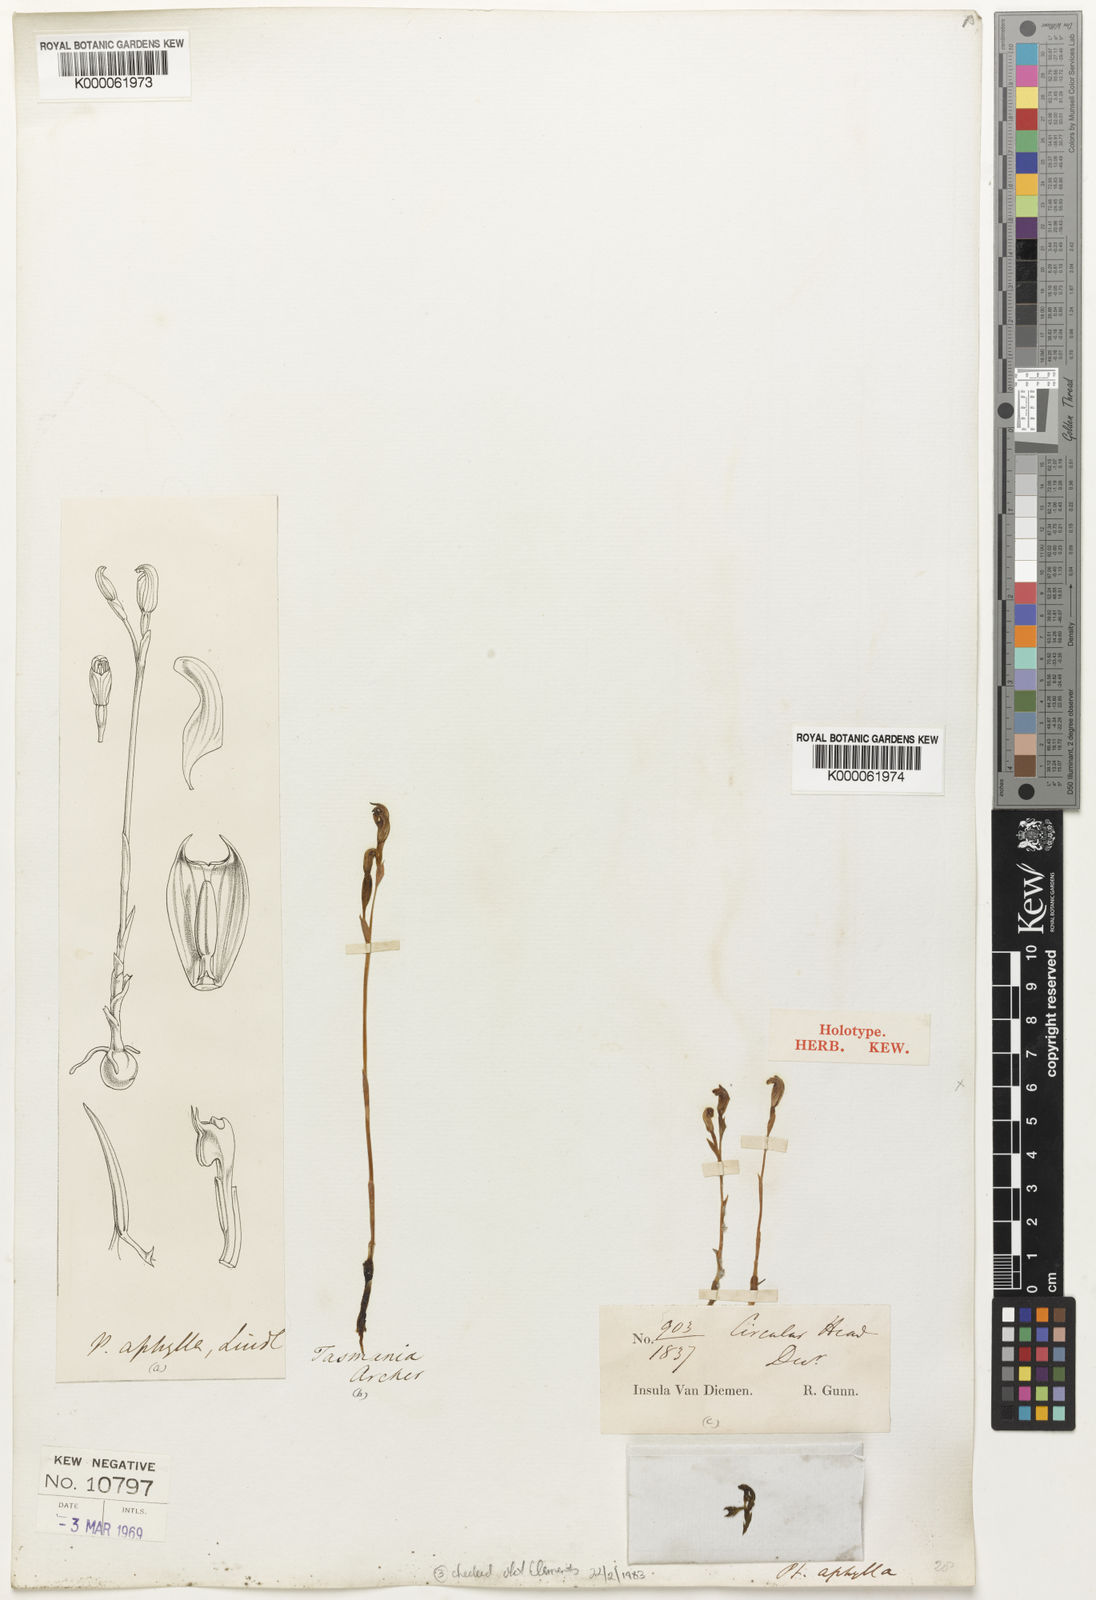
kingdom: Plantae
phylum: Tracheophyta
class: Liliopsida
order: Asparagales
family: Orchidaceae
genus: Pterostylis
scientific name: Pterostylis aphylla
